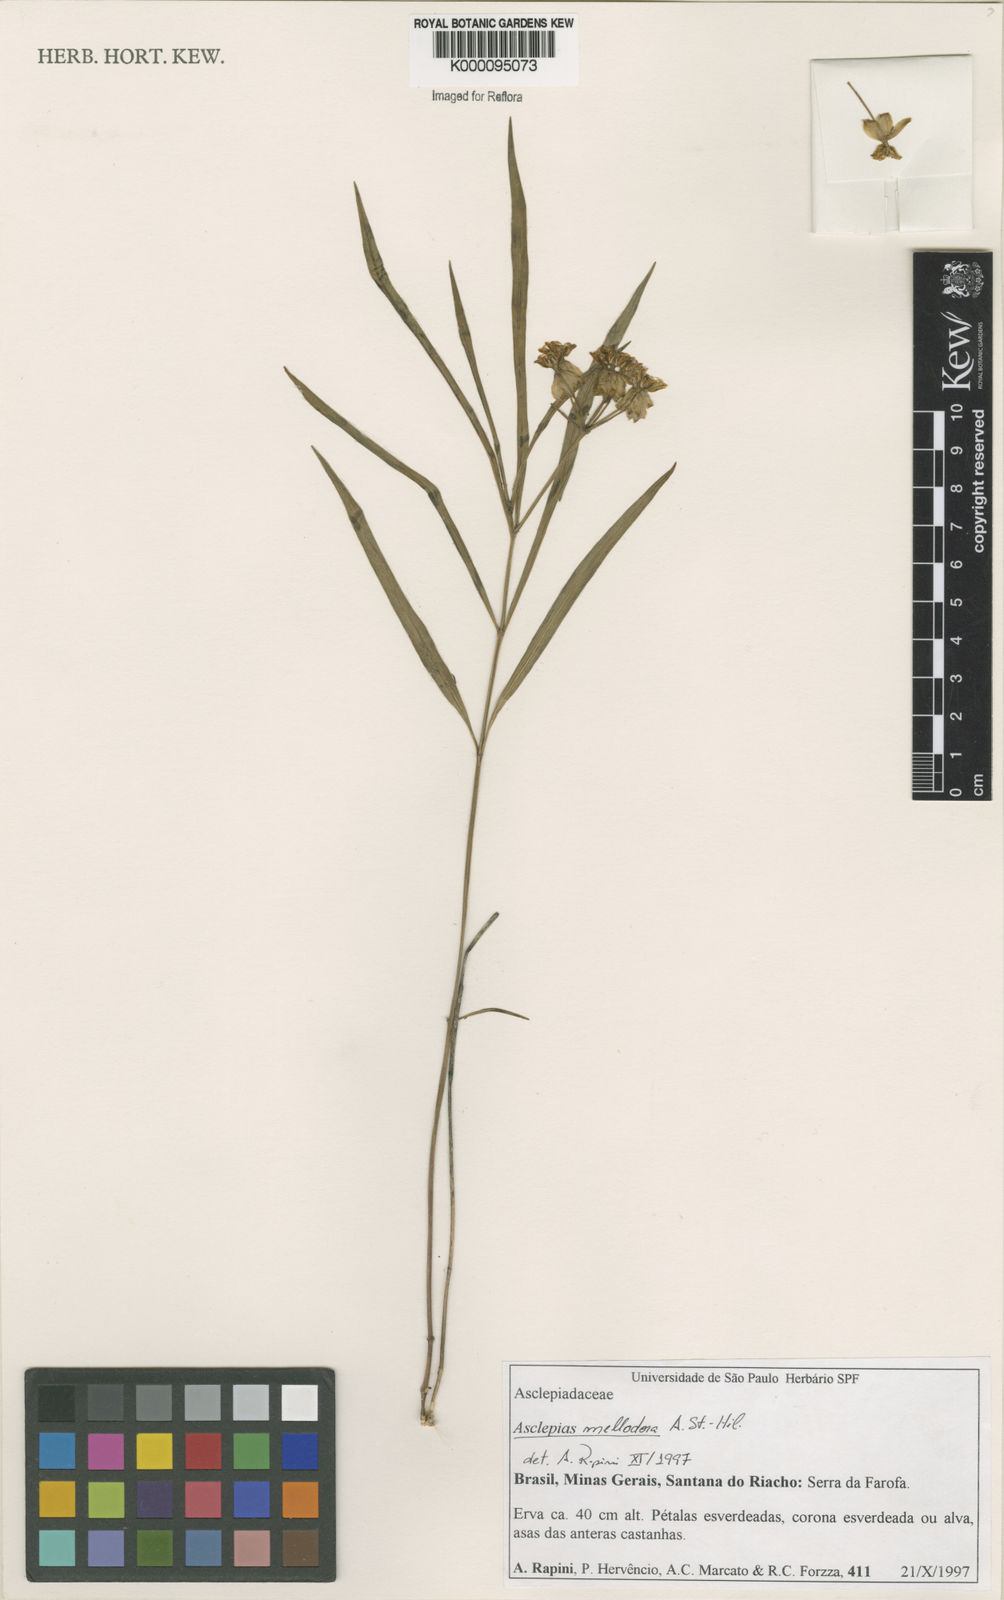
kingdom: Plantae
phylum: Tracheophyta
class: Magnoliopsida
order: Gentianales
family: Apocynaceae
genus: Asclepias
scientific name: Asclepias mellodora
